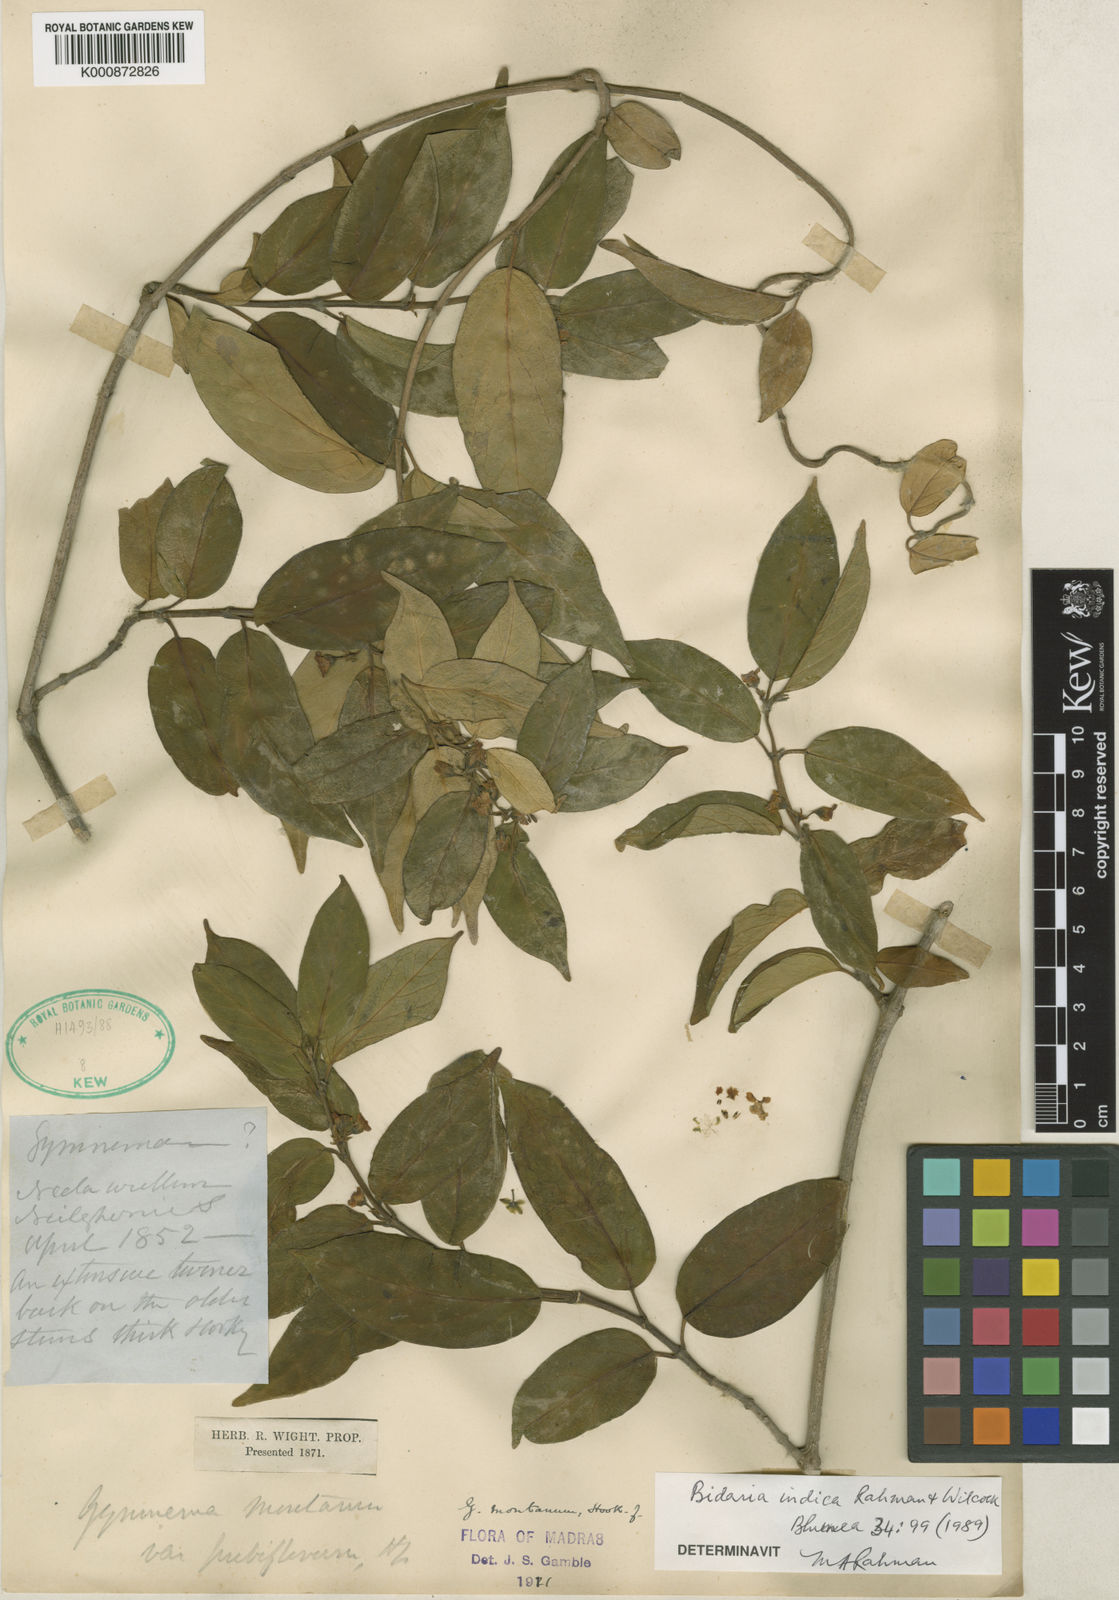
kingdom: Plantae
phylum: Tracheophyta
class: Magnoliopsida
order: Gentianales
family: Apocynaceae
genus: Gymnema
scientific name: Gymnema montanum
